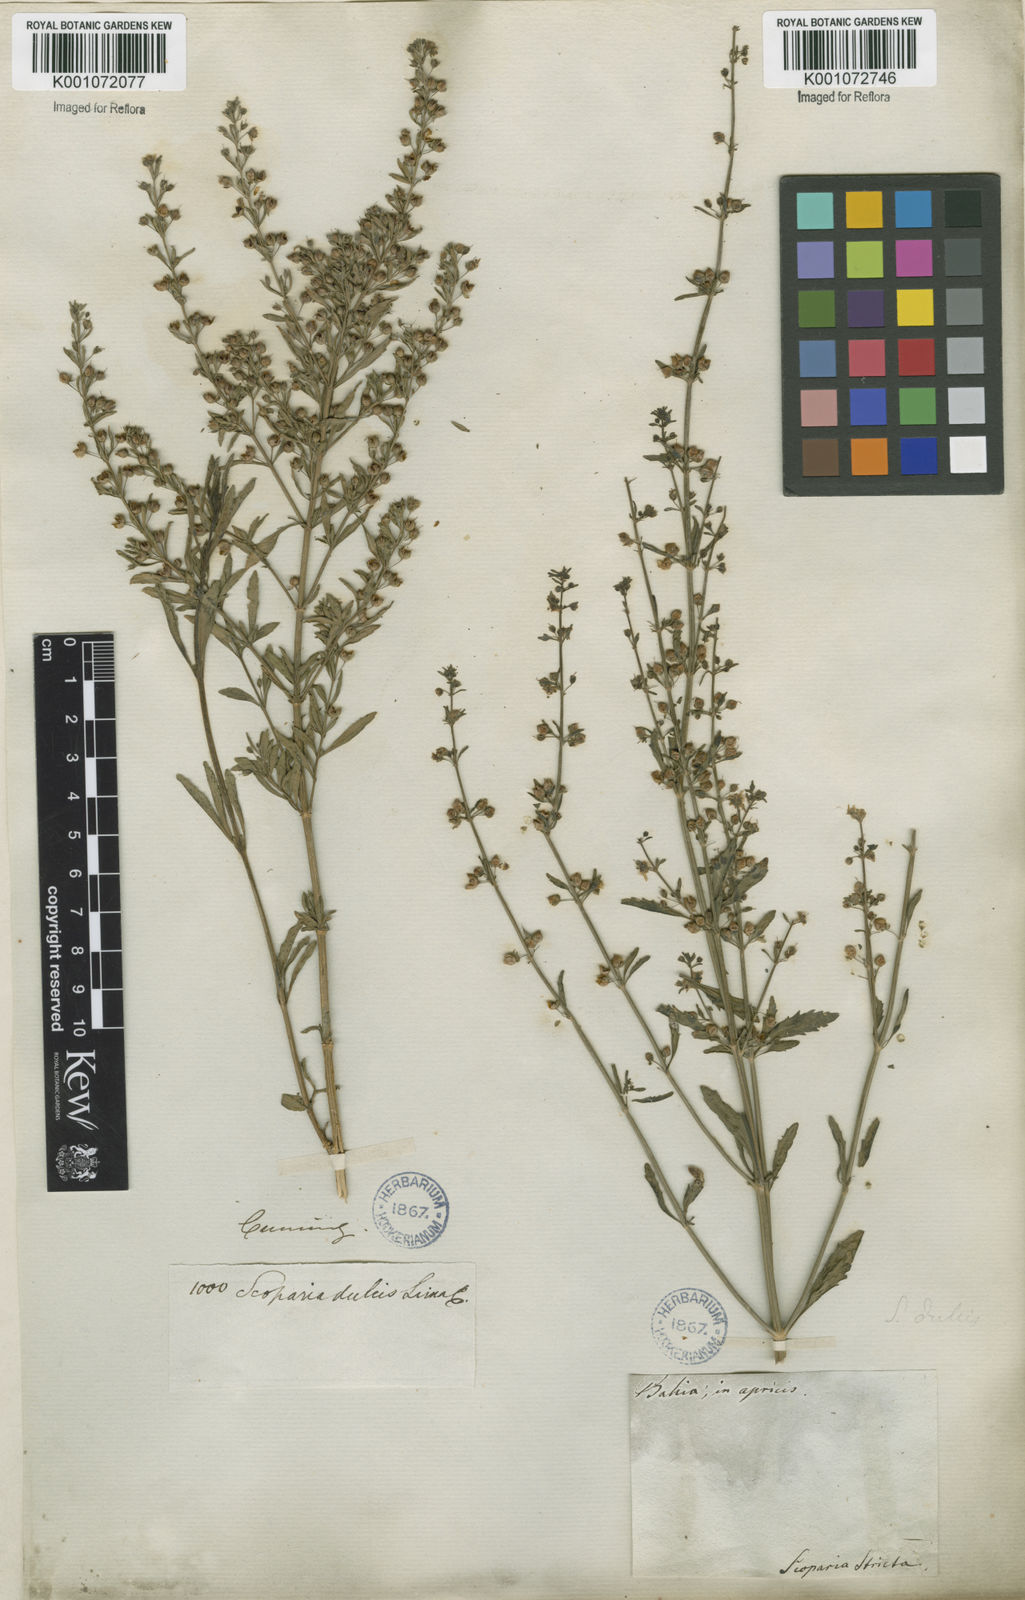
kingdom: Plantae
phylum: Tracheophyta
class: Magnoliopsida
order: Lamiales
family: Plantaginaceae
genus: Scoparia
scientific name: Scoparia dulcis
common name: Scoparia-weed
